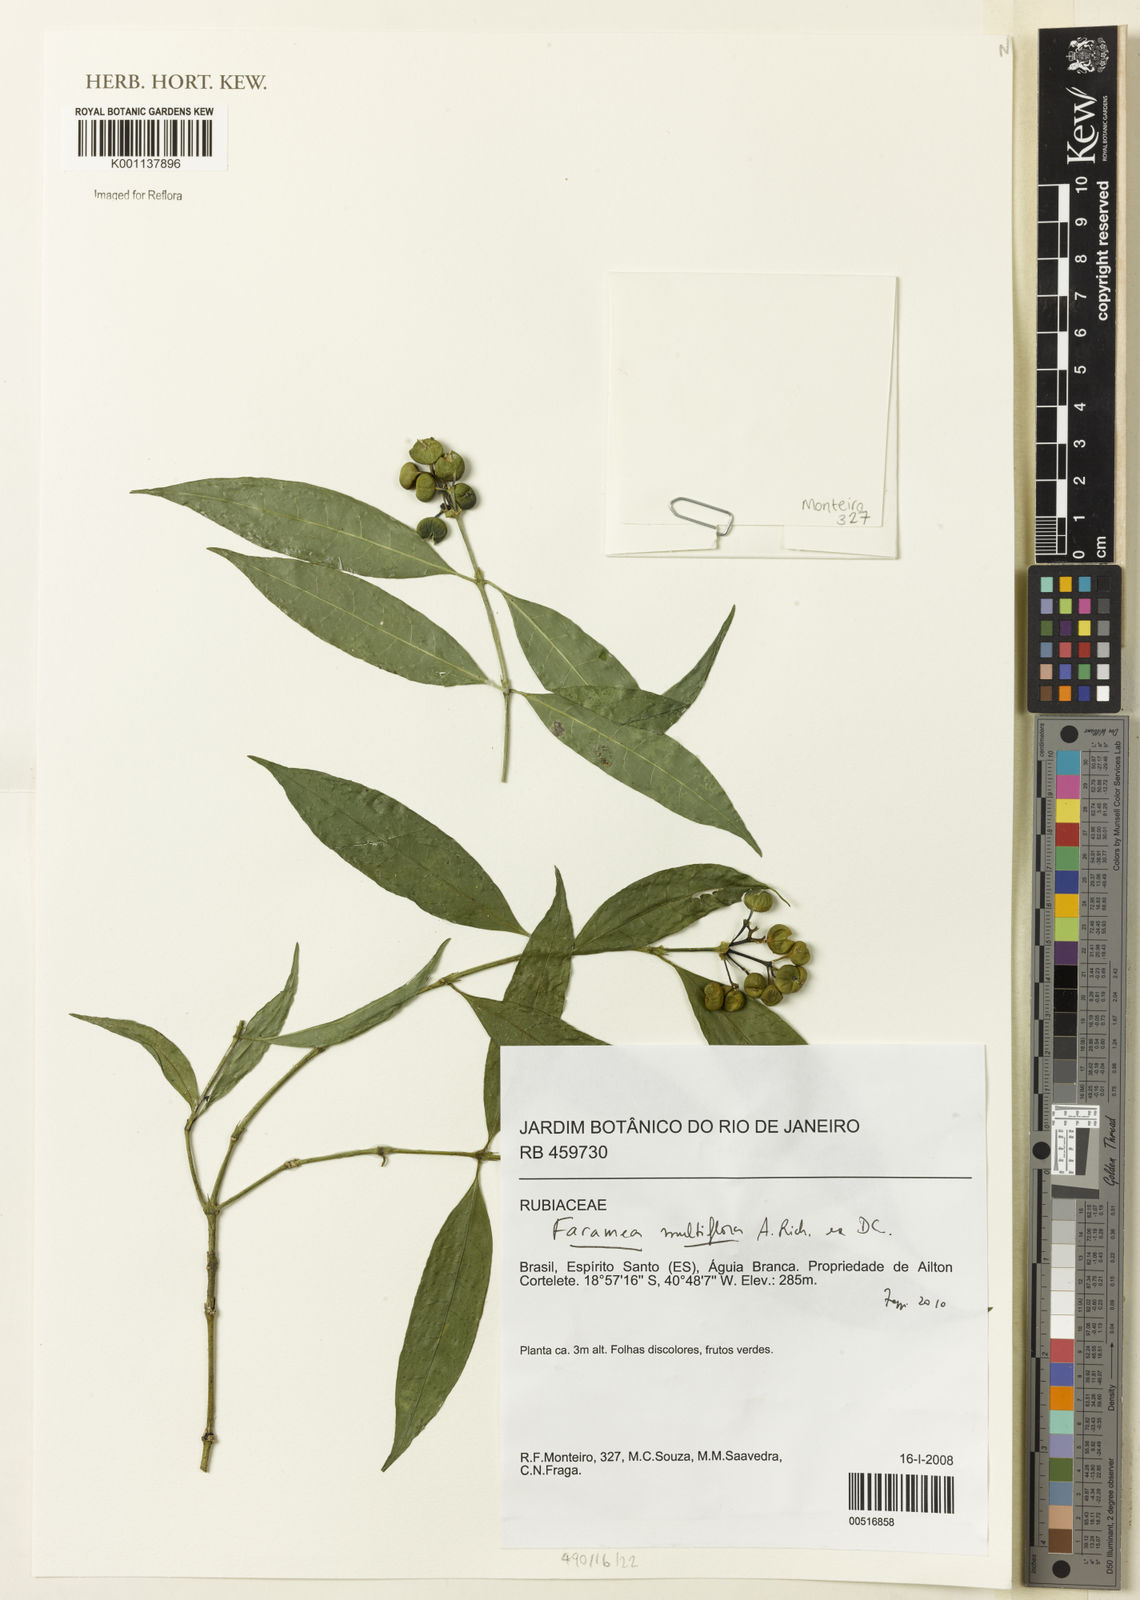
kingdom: Plantae
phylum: Tracheophyta
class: Magnoliopsida
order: Gentianales
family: Rubiaceae
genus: Faramea
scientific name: Faramea multiflora
